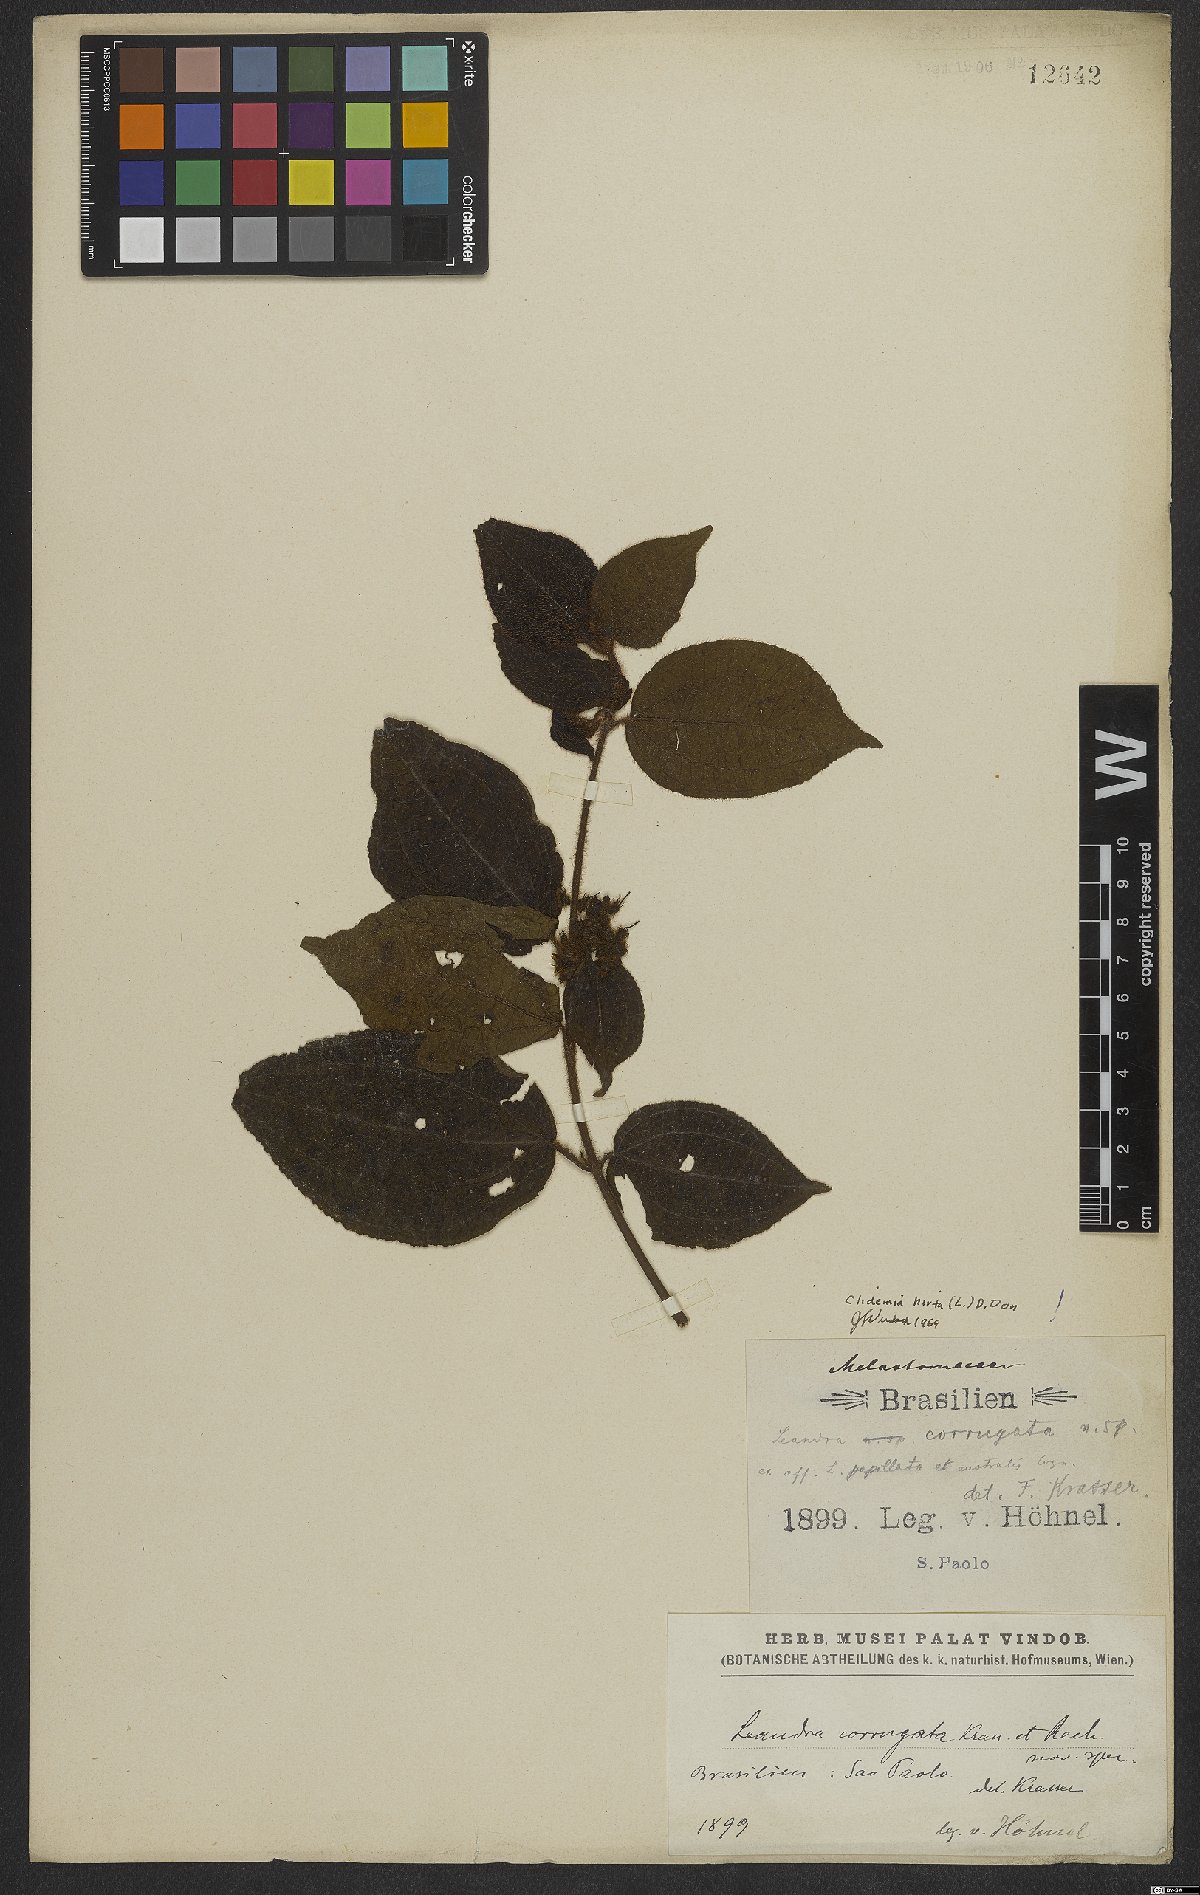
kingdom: Plantae
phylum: Tracheophyta
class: Magnoliopsida
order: Myrtales
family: Melastomataceae
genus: Miconia
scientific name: Miconia crenata
